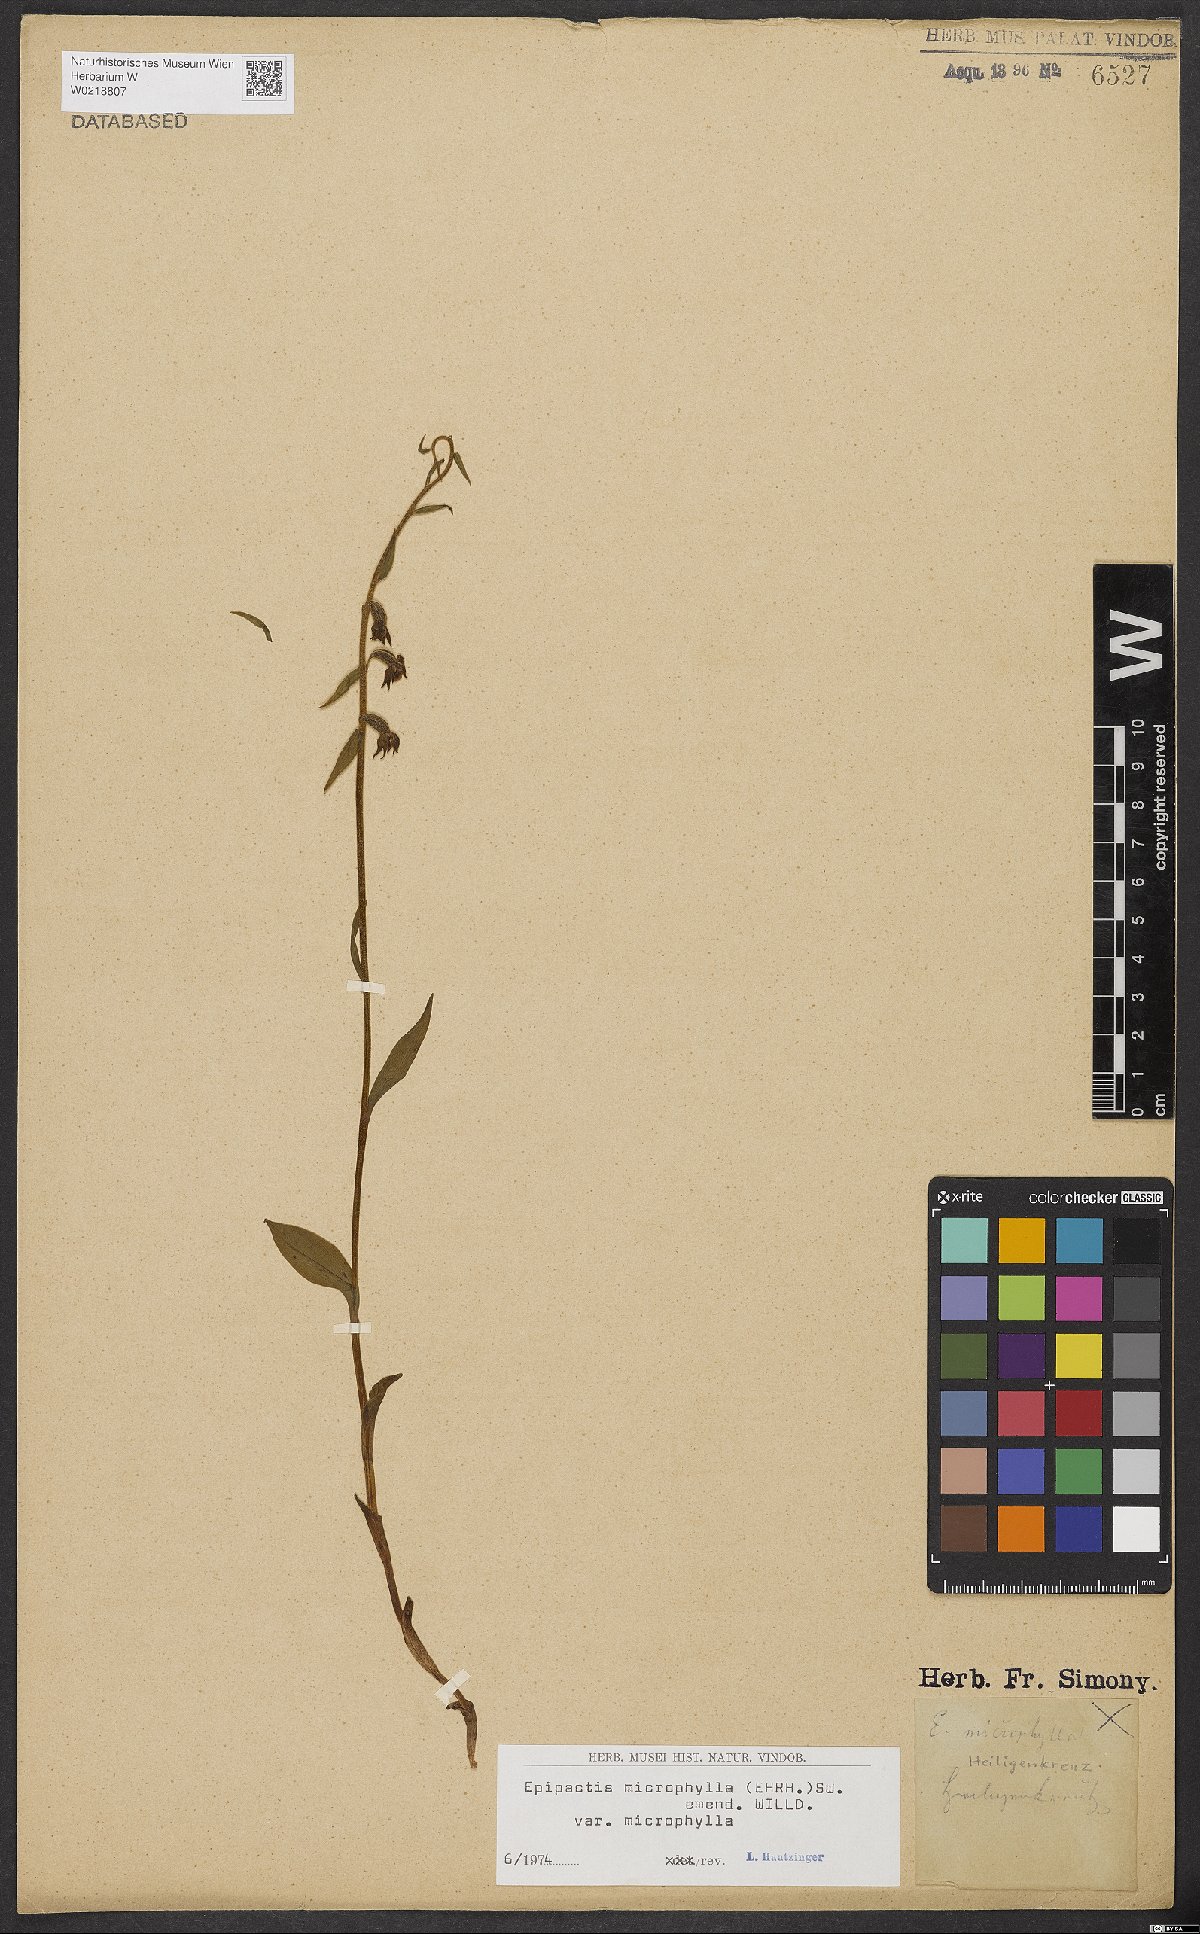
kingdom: Plantae
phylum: Tracheophyta
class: Liliopsida
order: Asparagales
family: Orchidaceae
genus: Epipactis
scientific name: Epipactis microphylla
